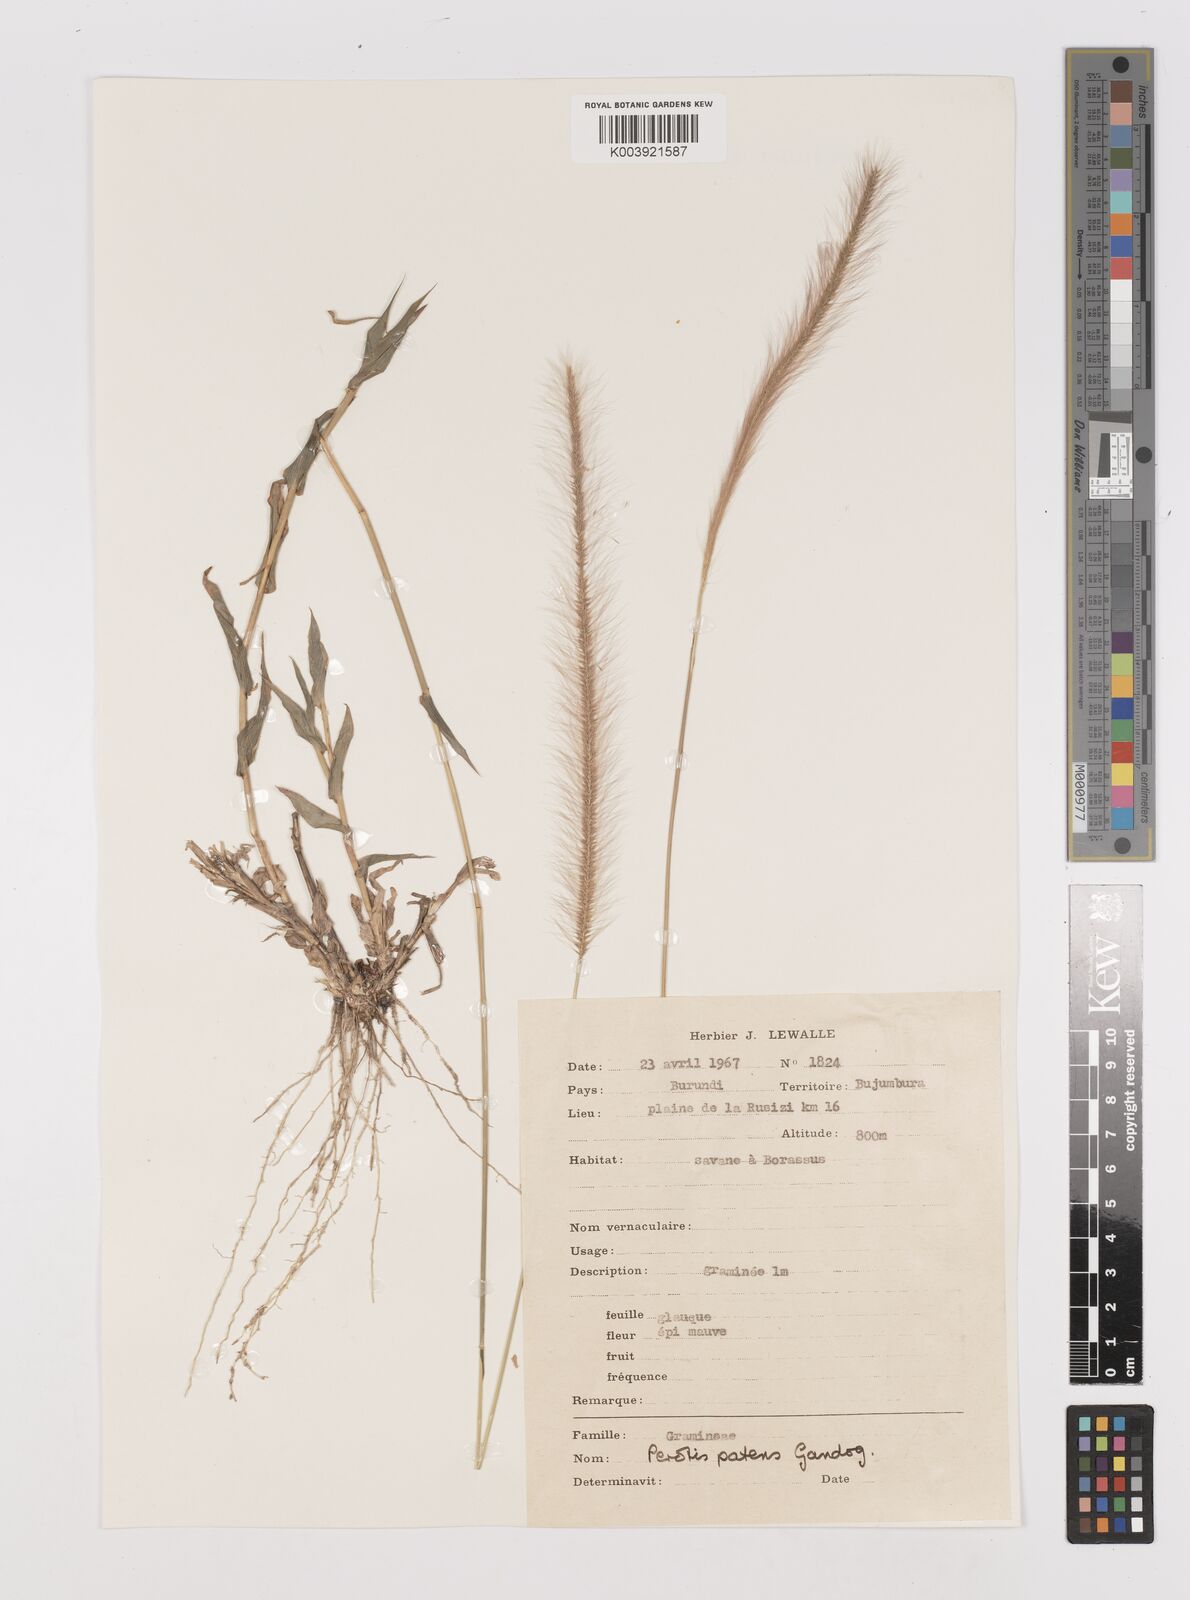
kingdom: Plantae
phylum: Tracheophyta
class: Liliopsida
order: Poales
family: Poaceae
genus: Perotis
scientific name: Perotis patens
